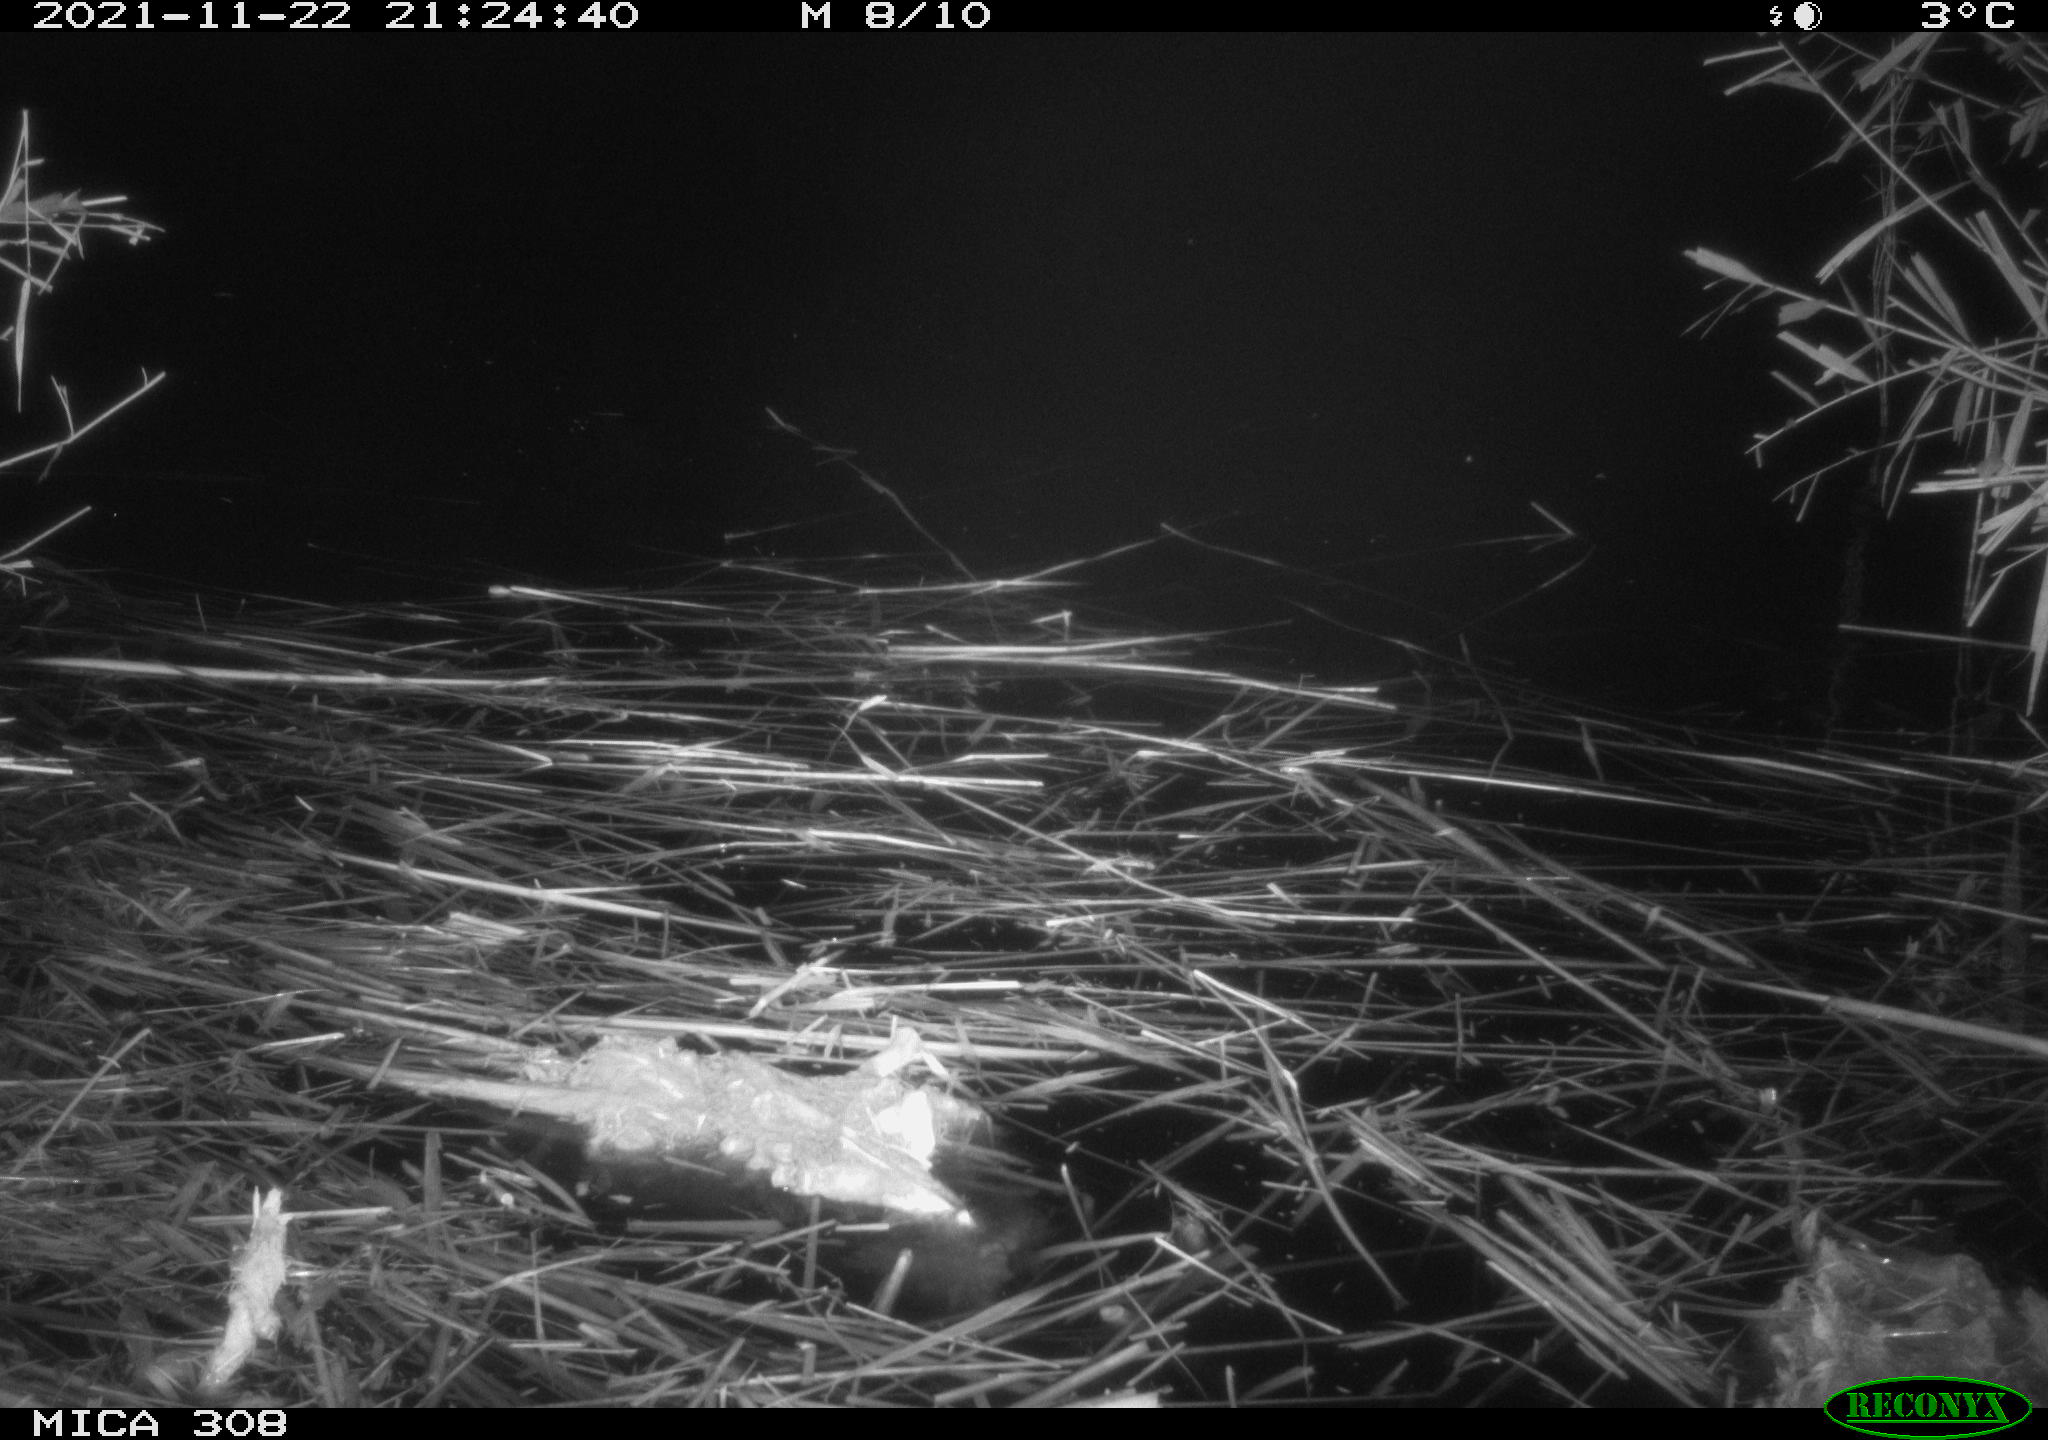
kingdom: Animalia
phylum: Chordata
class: Mammalia
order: Rodentia
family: Muridae
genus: Rattus
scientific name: Rattus norvegicus
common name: Brown rat
